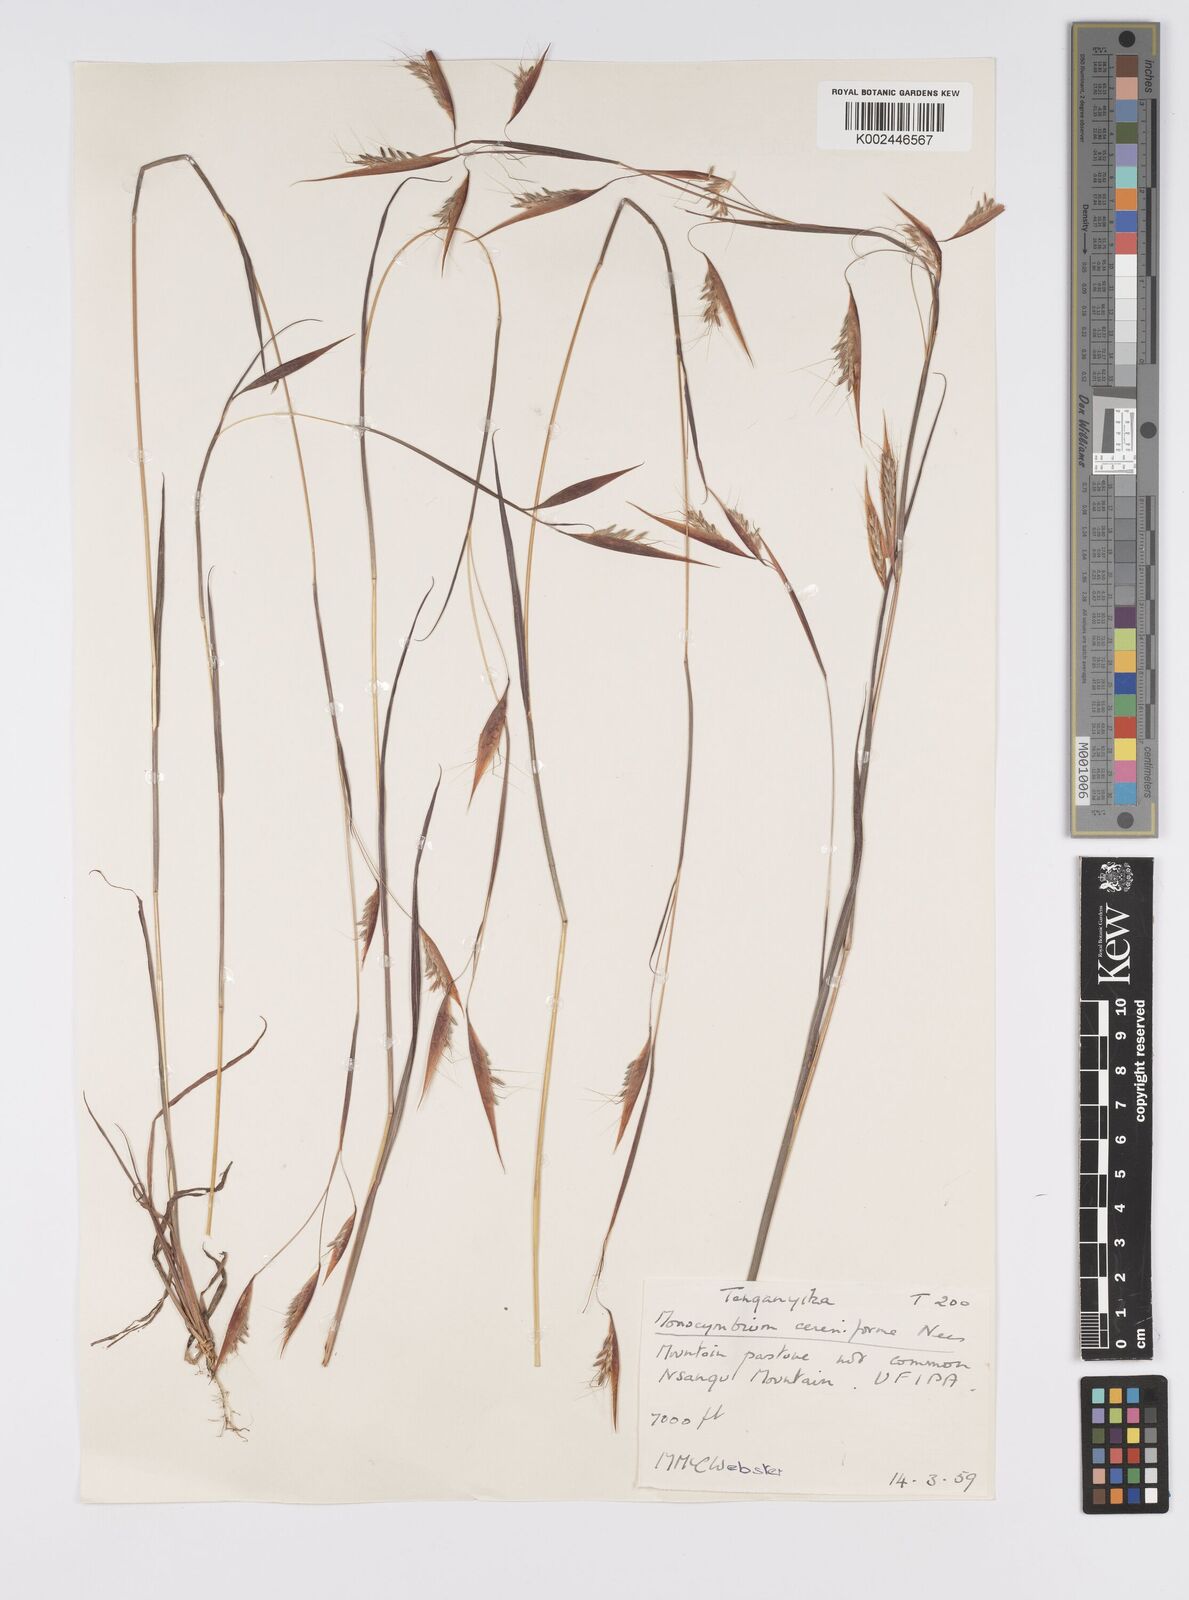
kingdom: Plantae
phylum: Tracheophyta
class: Liliopsida
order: Poales
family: Poaceae
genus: Monocymbium
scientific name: Monocymbium ceresiiforme
